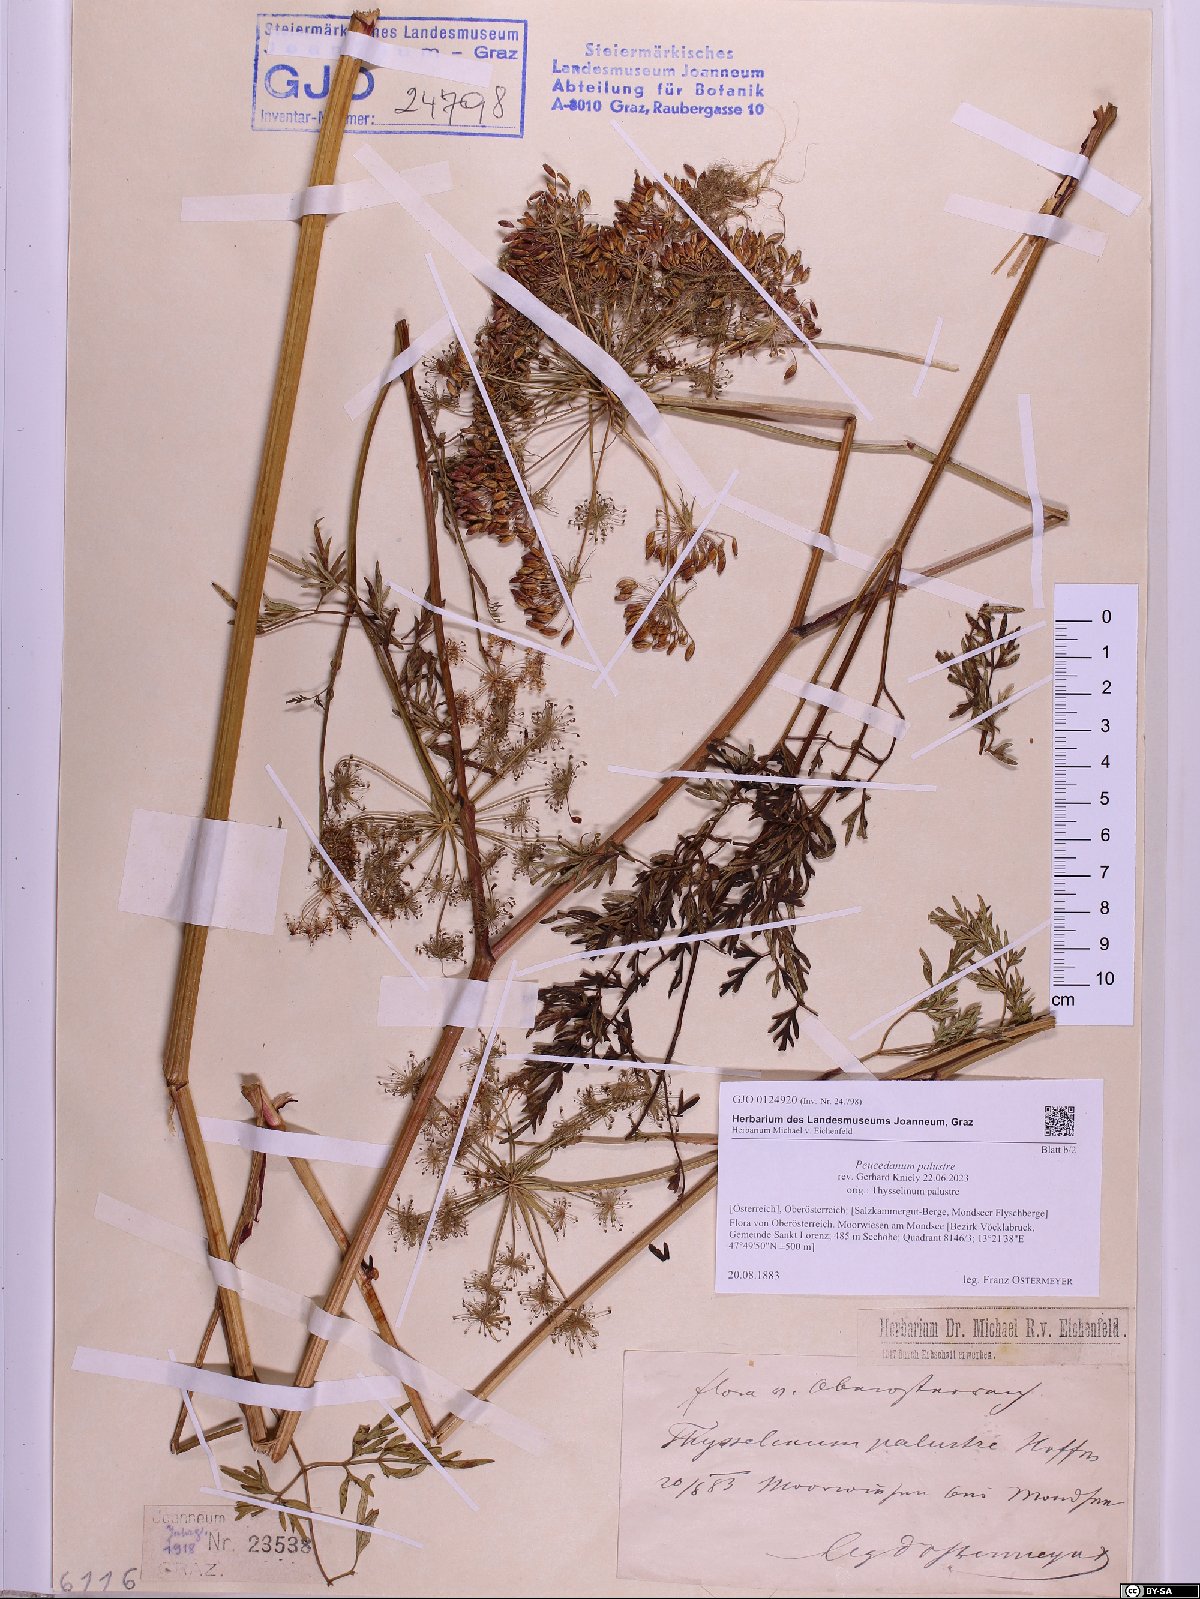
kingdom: Plantae
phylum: Tracheophyta
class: Magnoliopsida
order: Apiales
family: Apiaceae
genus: Thysselinum
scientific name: Thysselinum palustre
